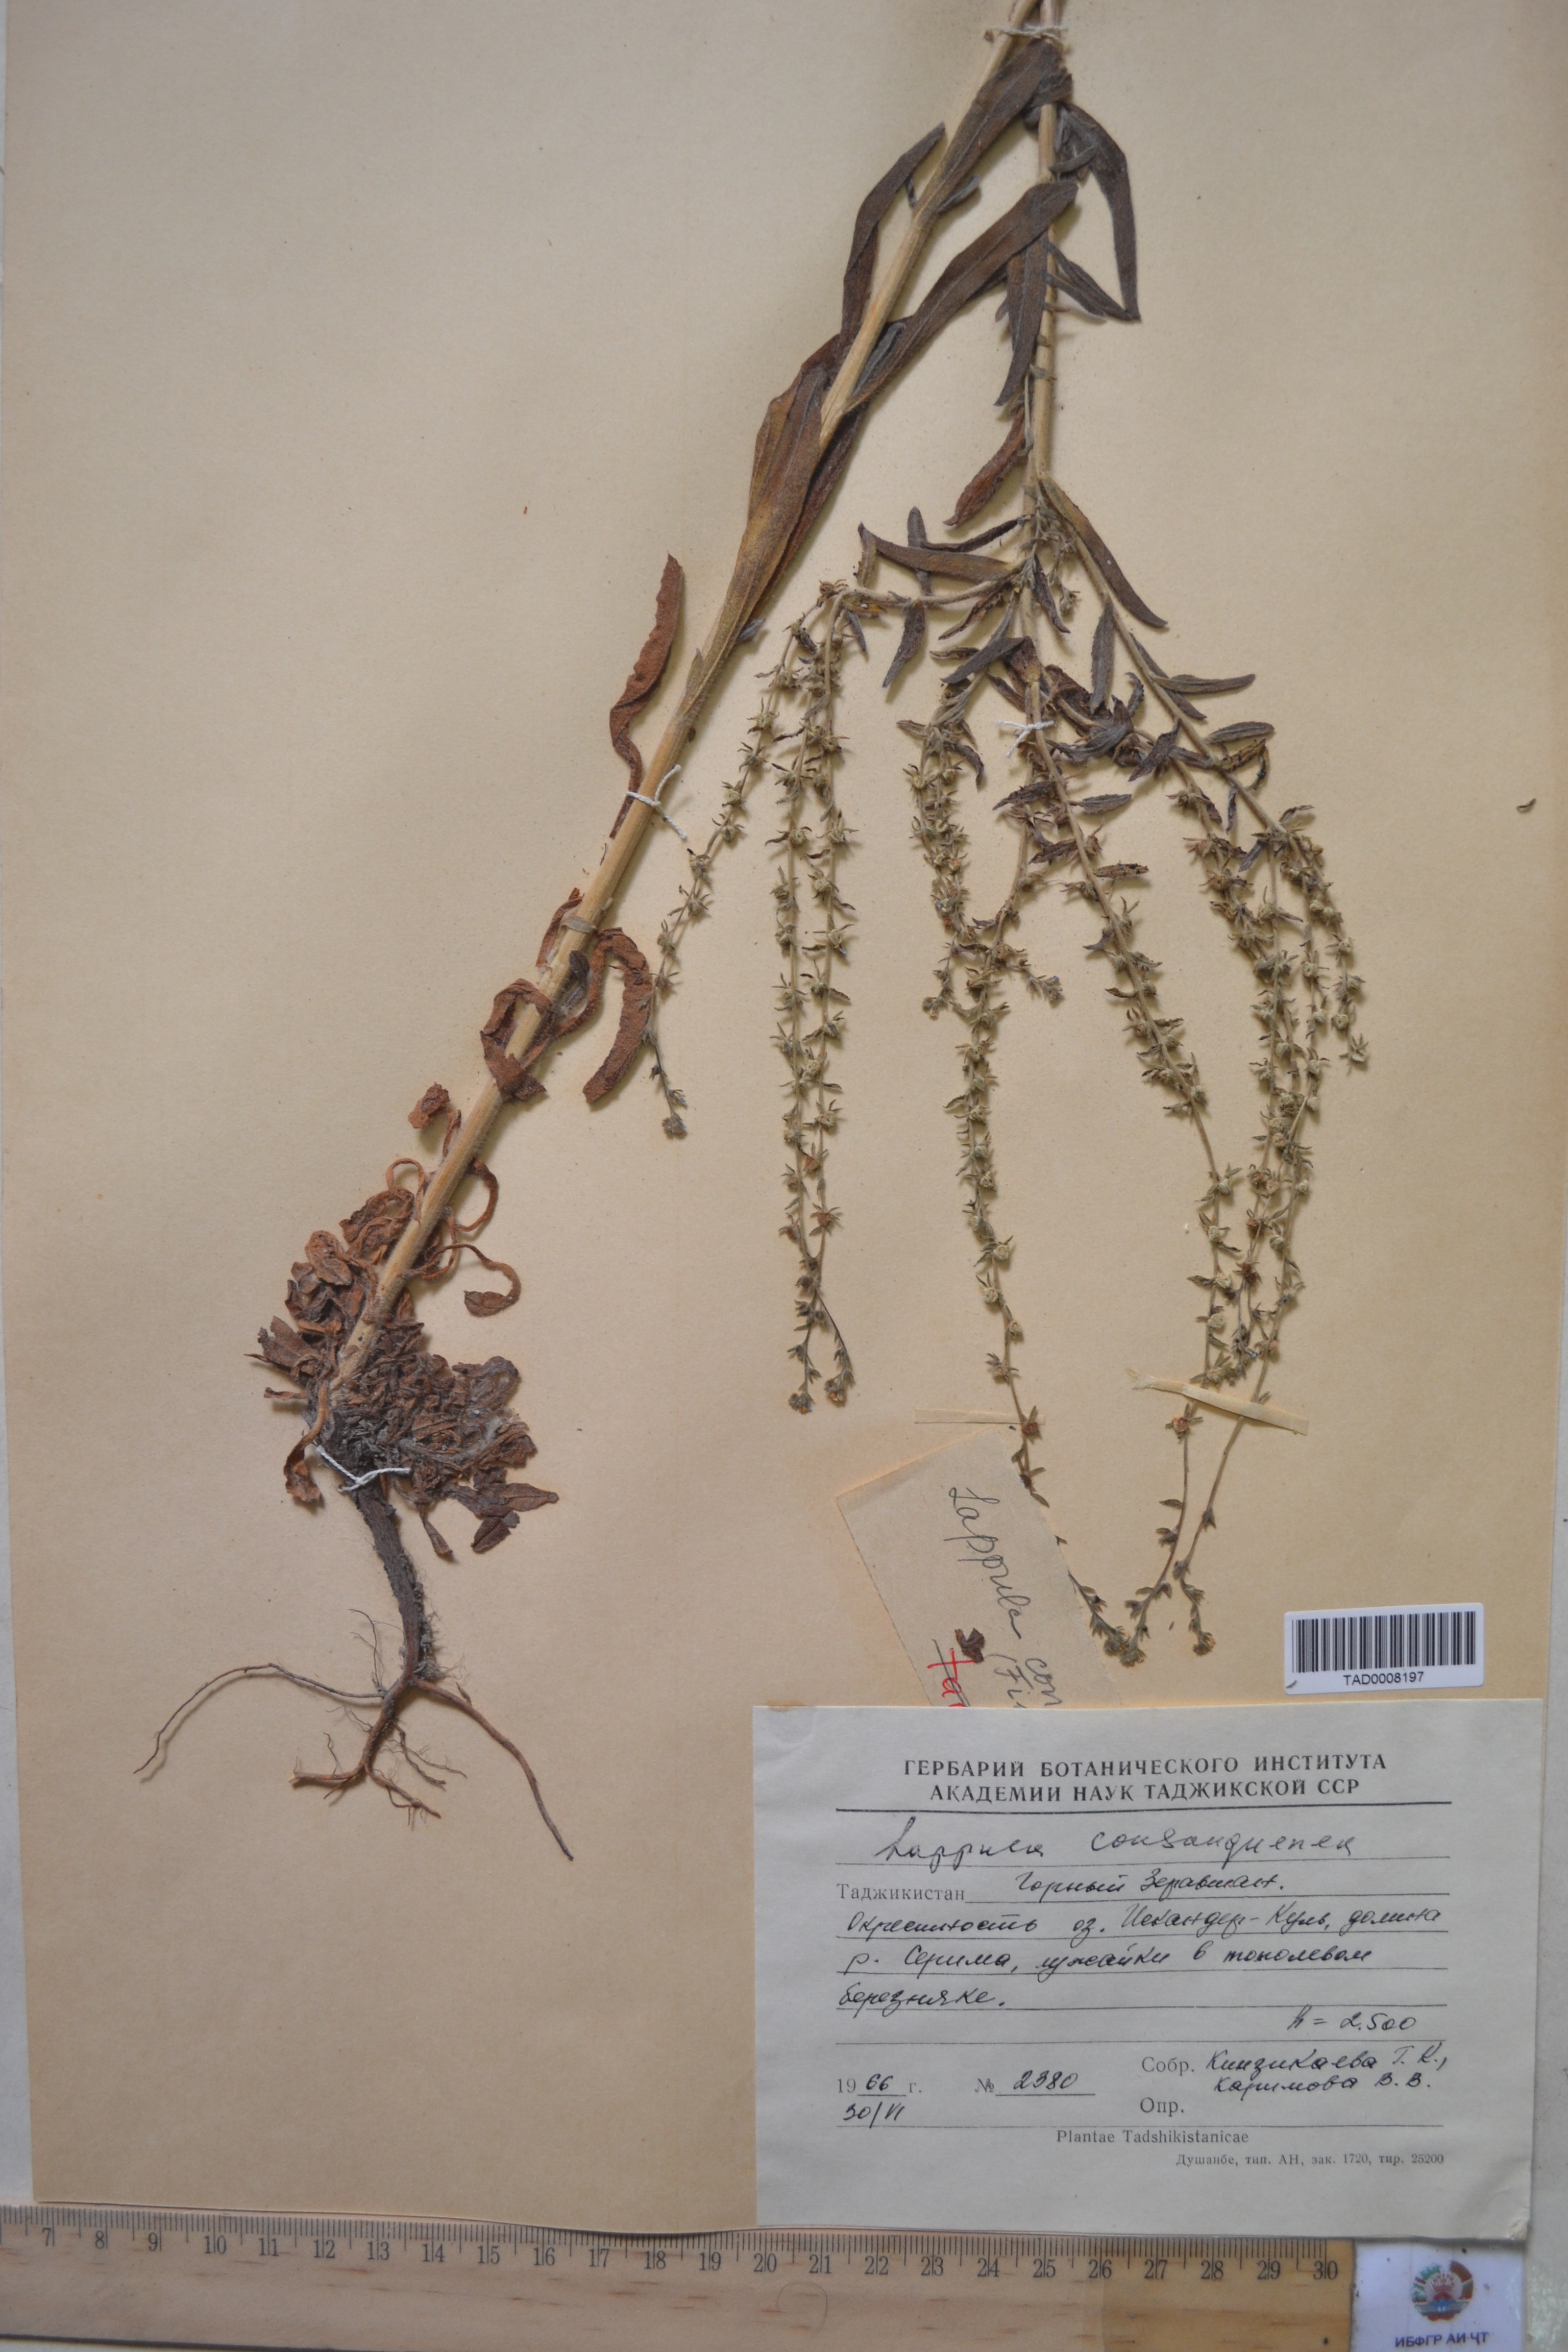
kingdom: Plantae
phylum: Tracheophyta
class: Magnoliopsida
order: Boraginales
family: Boraginaceae
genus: Lappula
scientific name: Lappula squarrosa
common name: European stickseed
